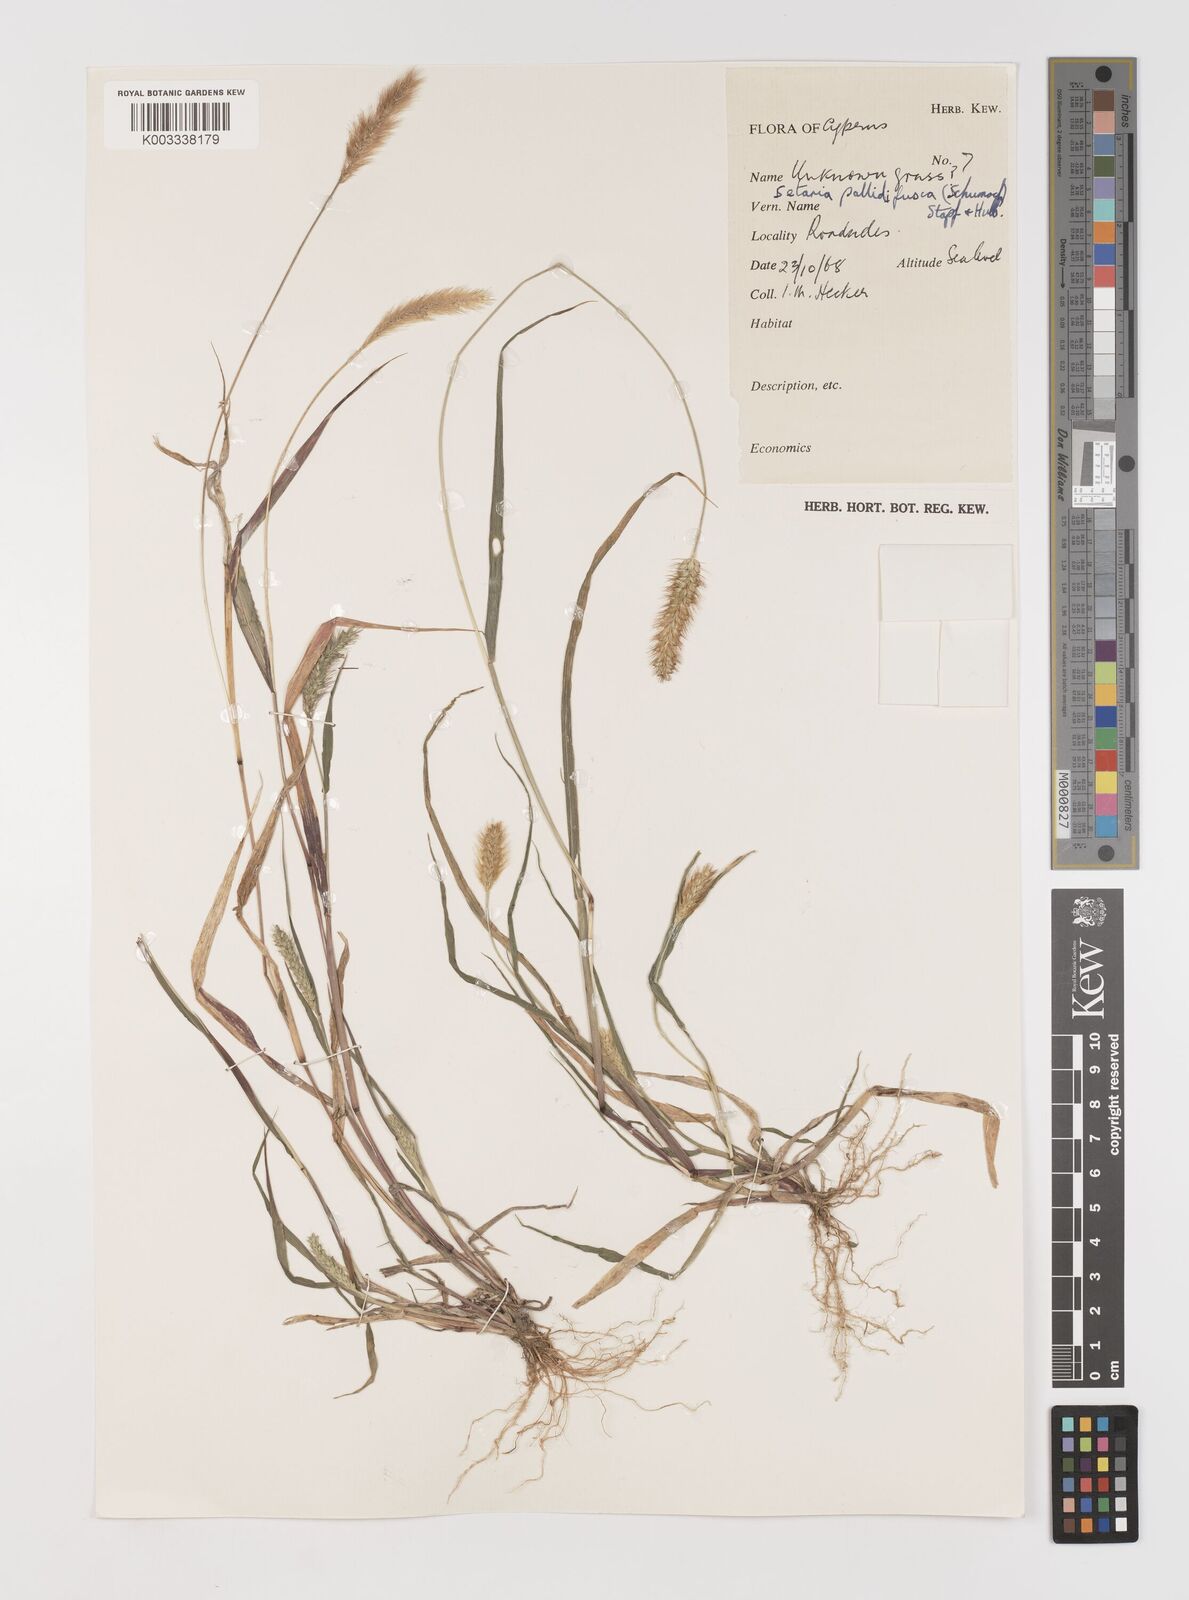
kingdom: Plantae
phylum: Tracheophyta
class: Liliopsida
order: Poales
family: Poaceae
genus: Setaria
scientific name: Setaria pumila
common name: Yellow bristle-grass
